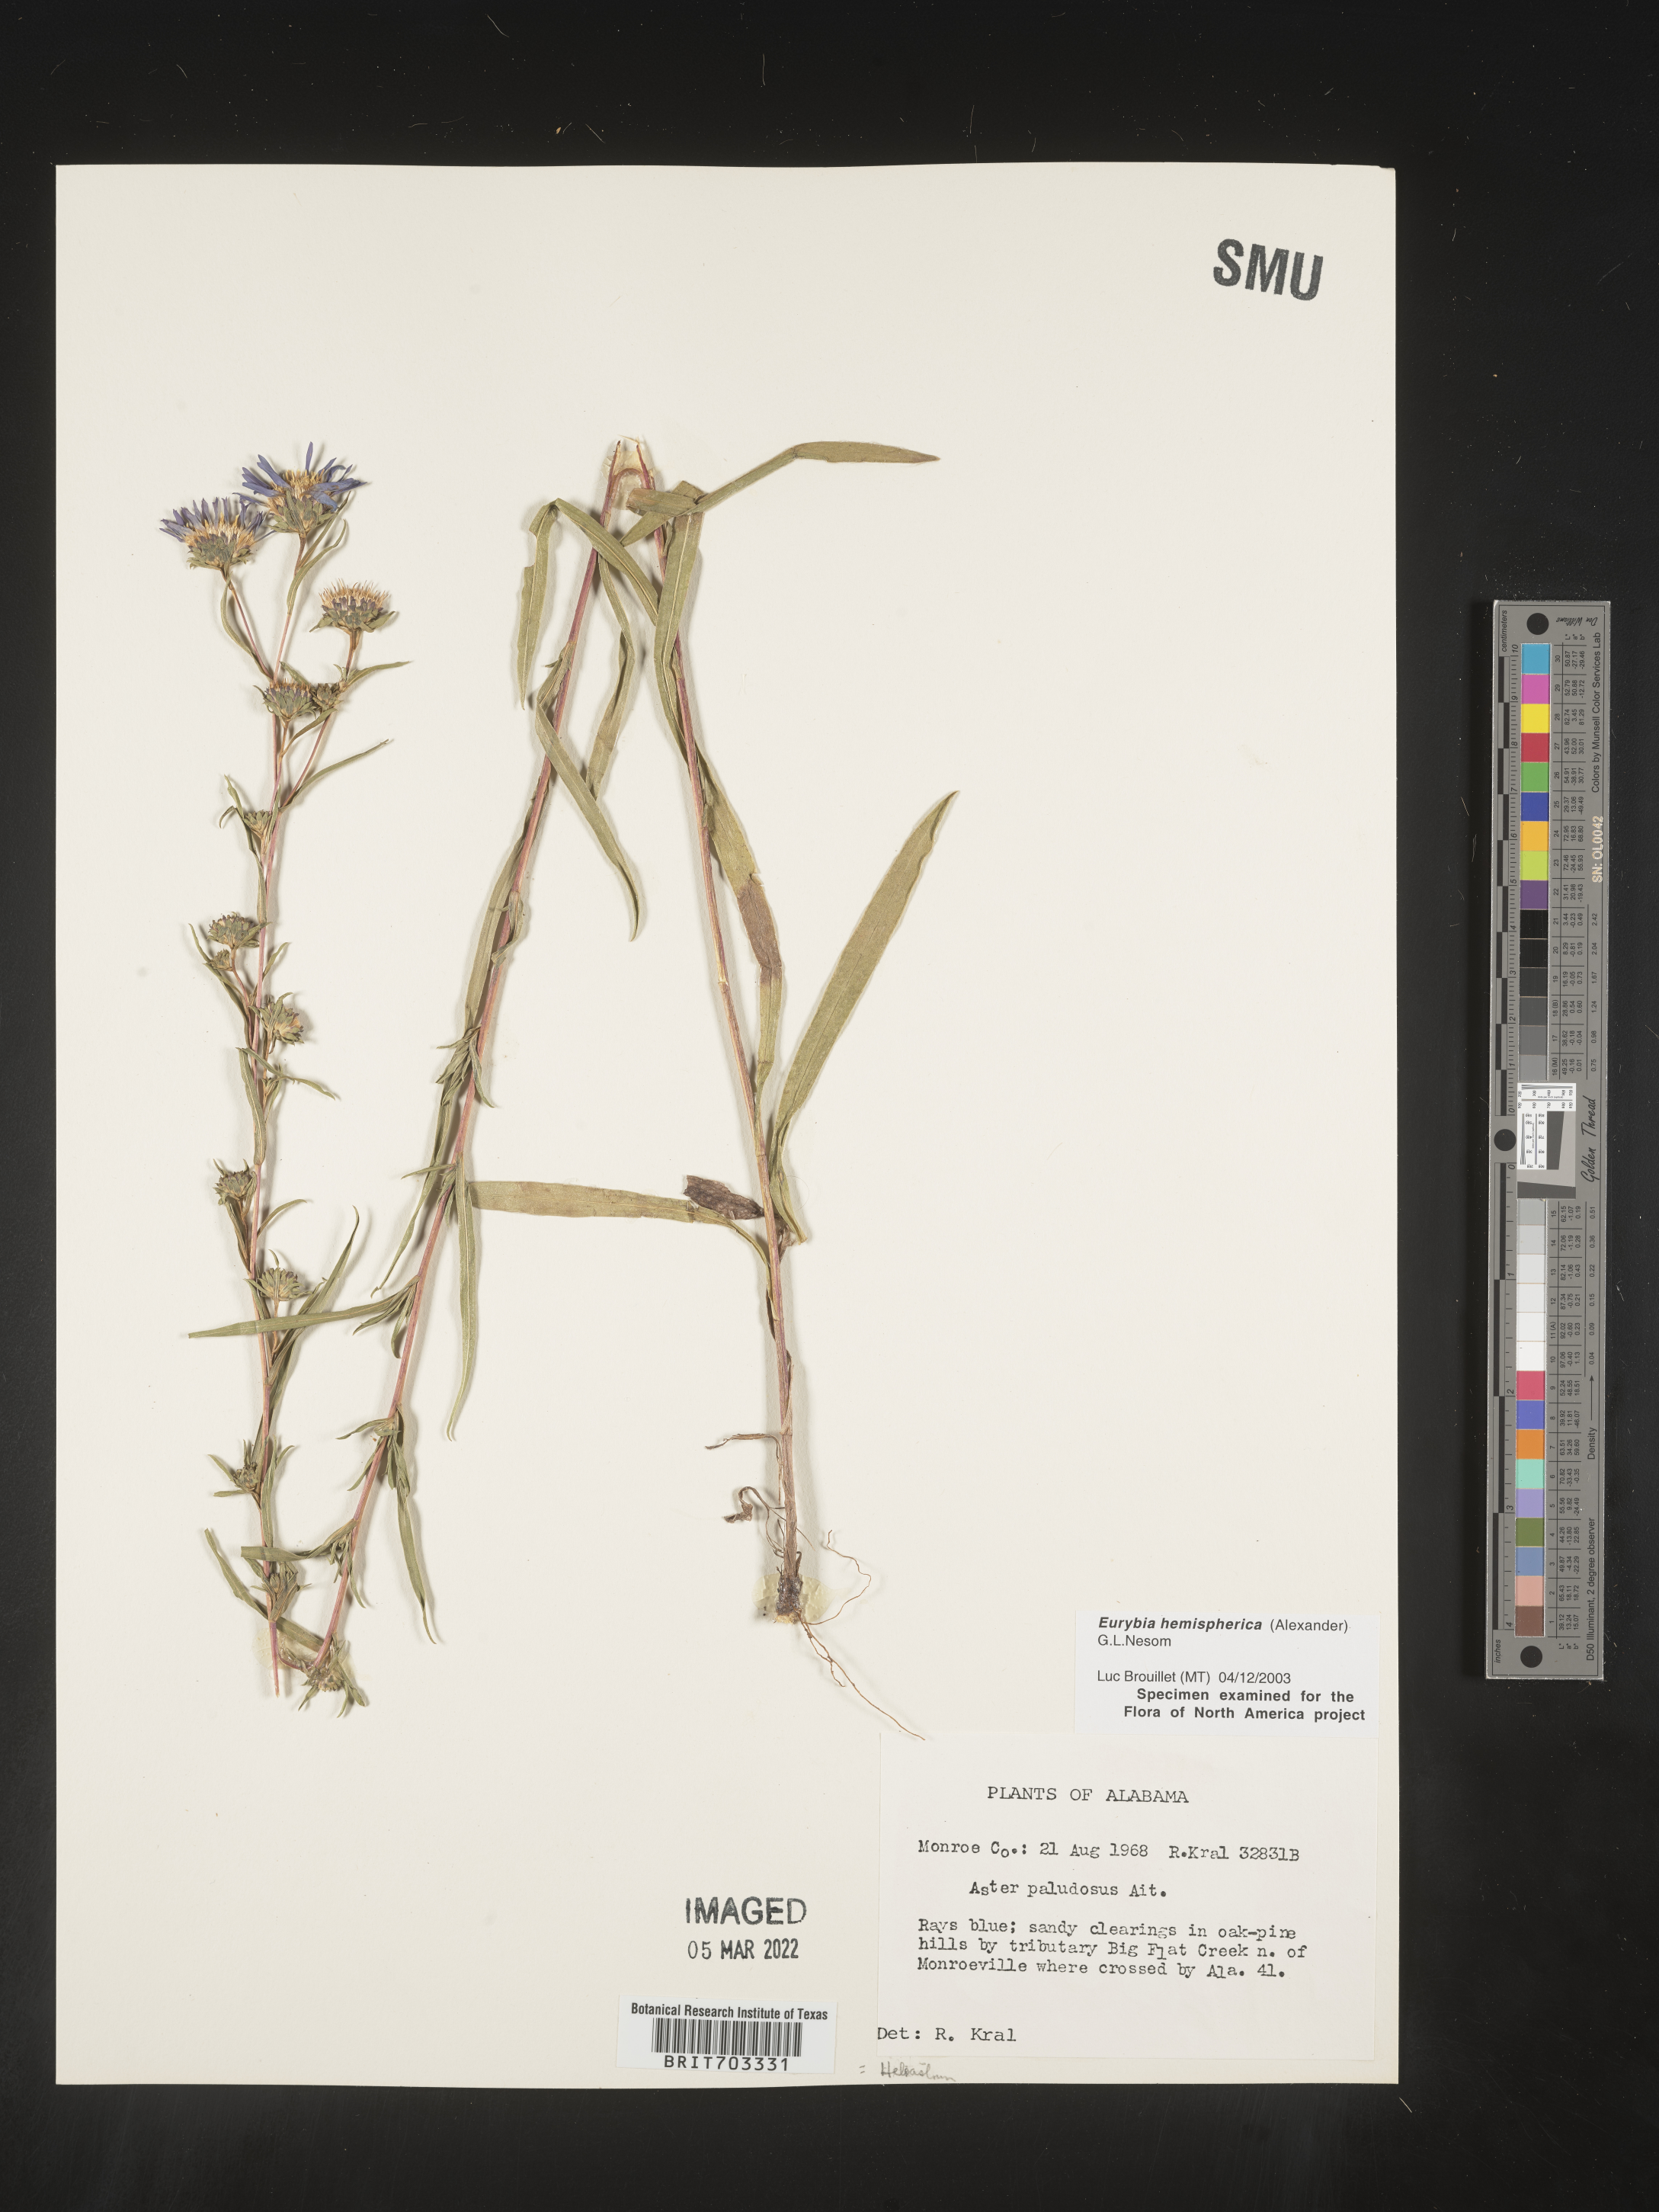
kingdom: Plantae
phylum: Tracheophyta
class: Magnoliopsida
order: Asterales
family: Asteraceae
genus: Eurybia
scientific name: Eurybia hemispherica
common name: Showy aster
